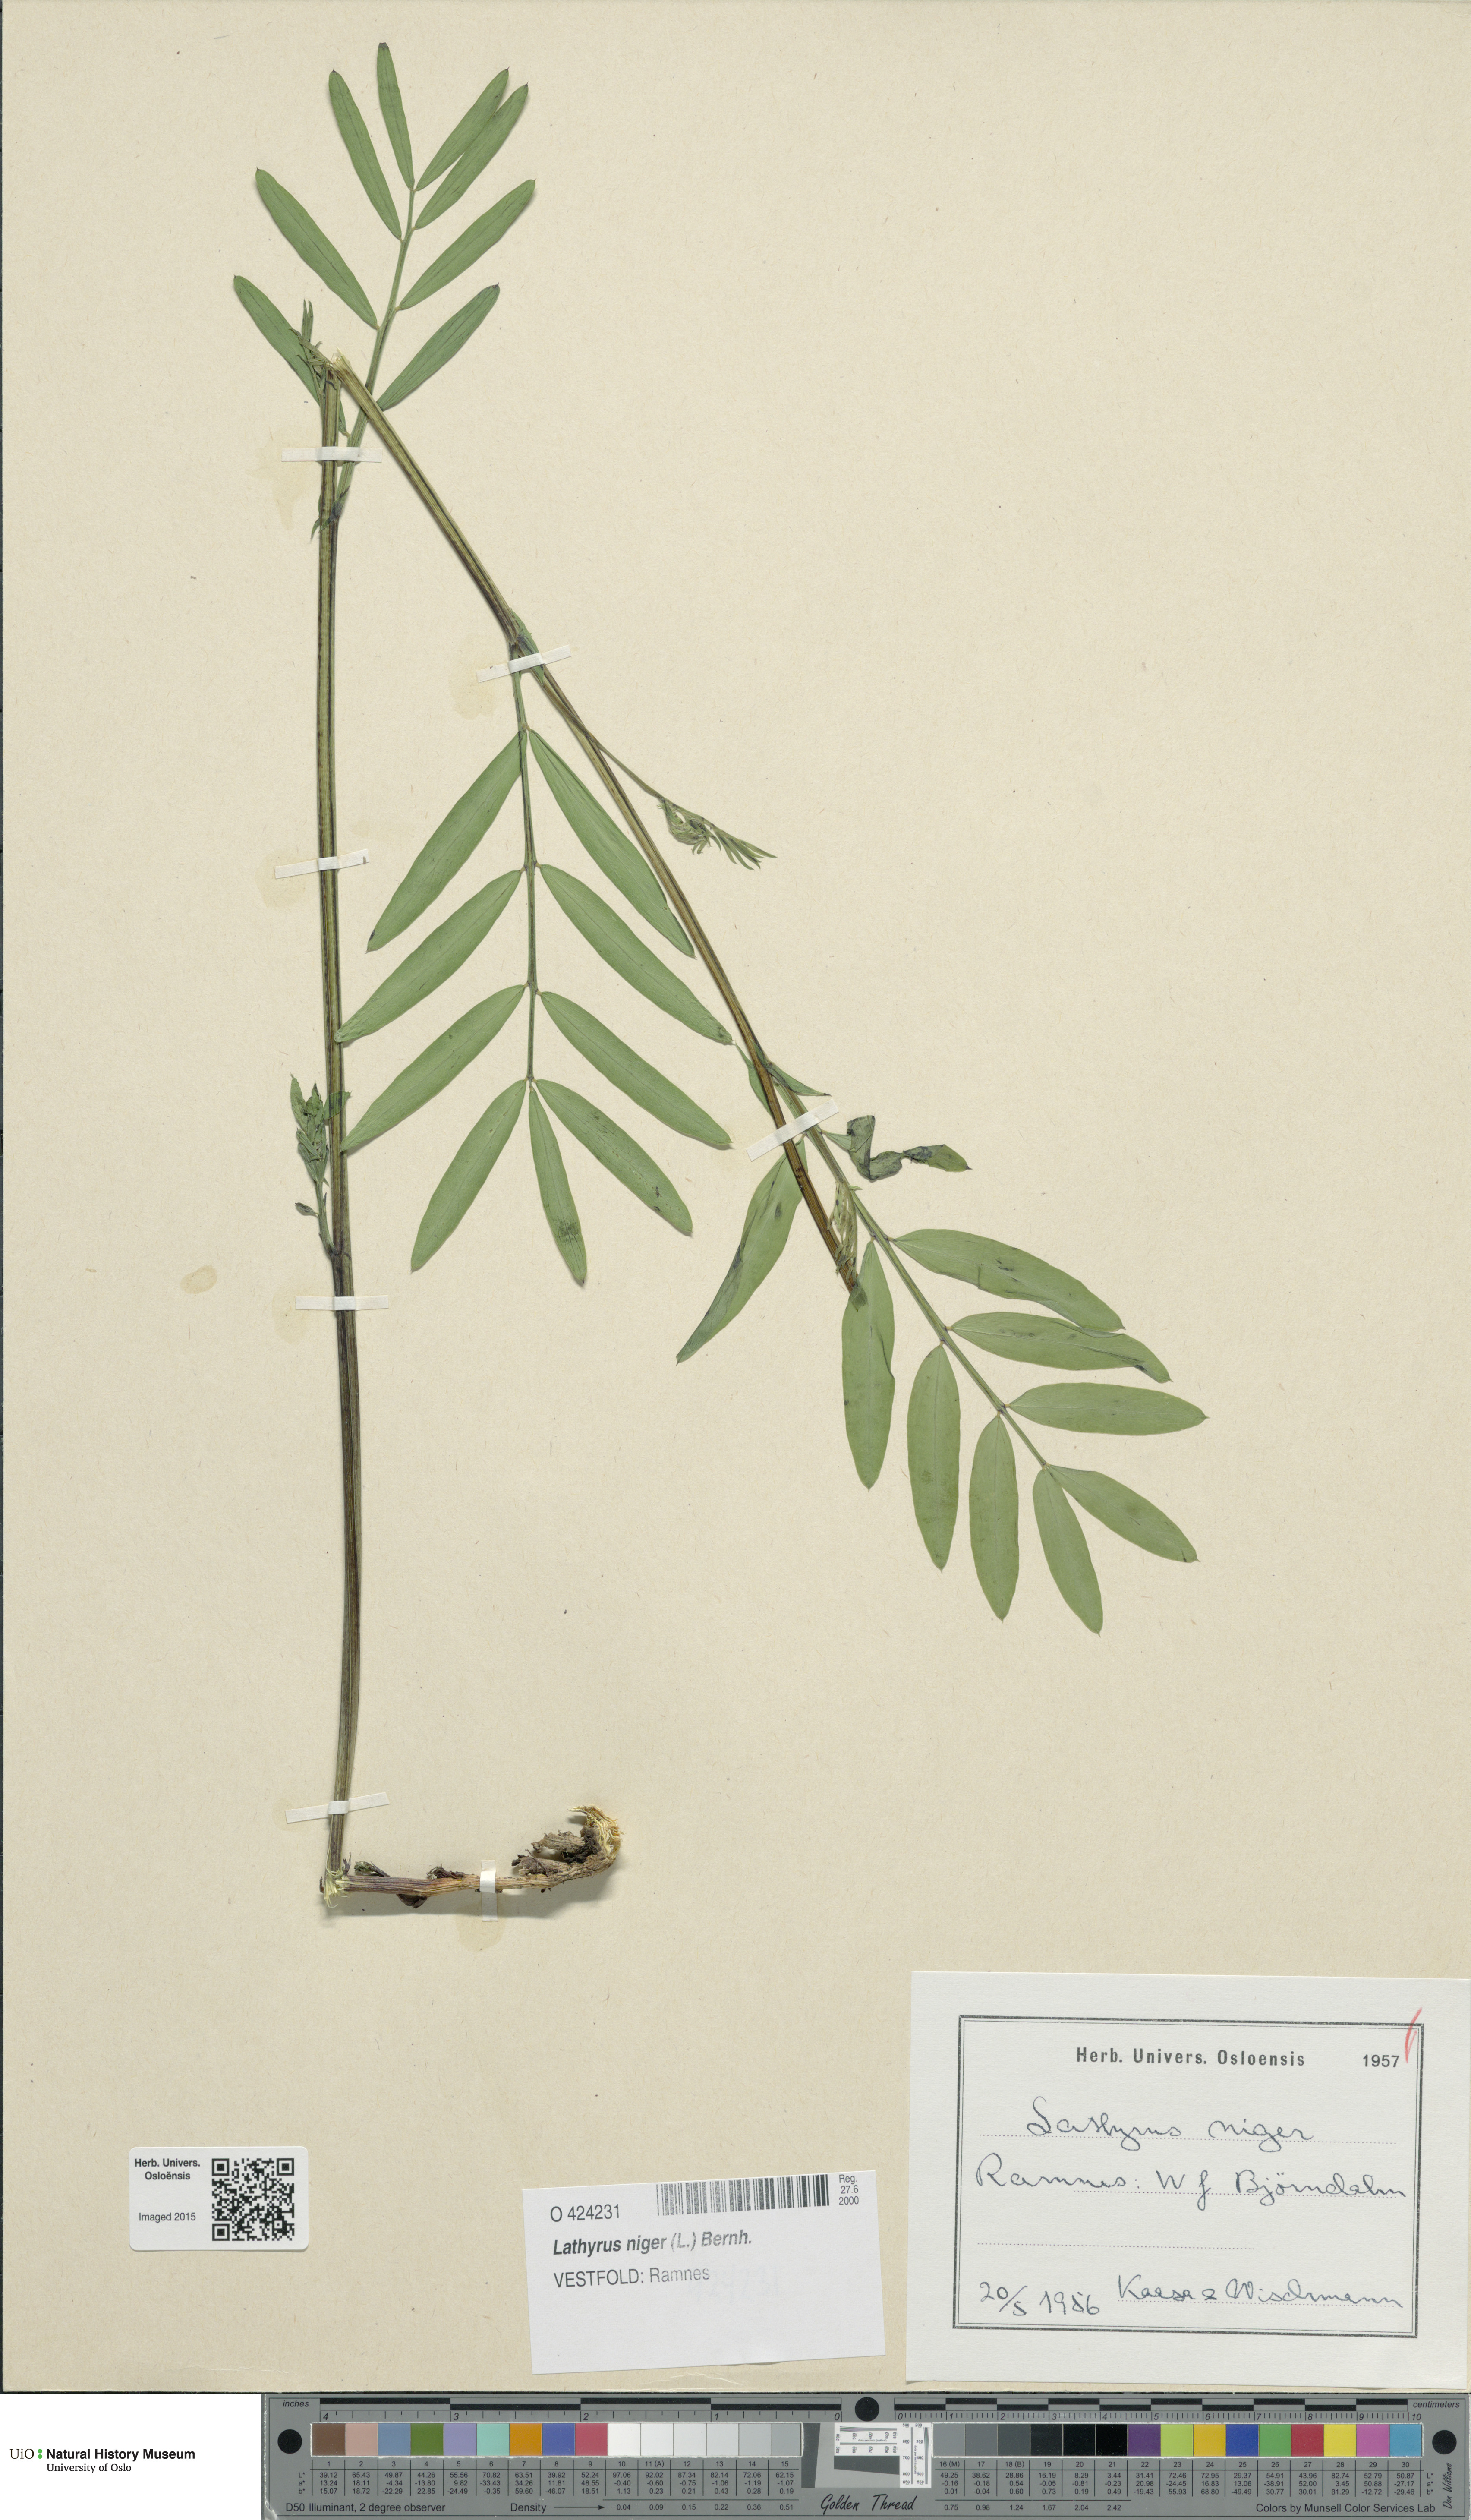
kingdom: Plantae
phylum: Tracheophyta
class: Magnoliopsida
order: Fabales
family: Fabaceae
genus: Lathyrus
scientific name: Lathyrus niger
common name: Black pea
